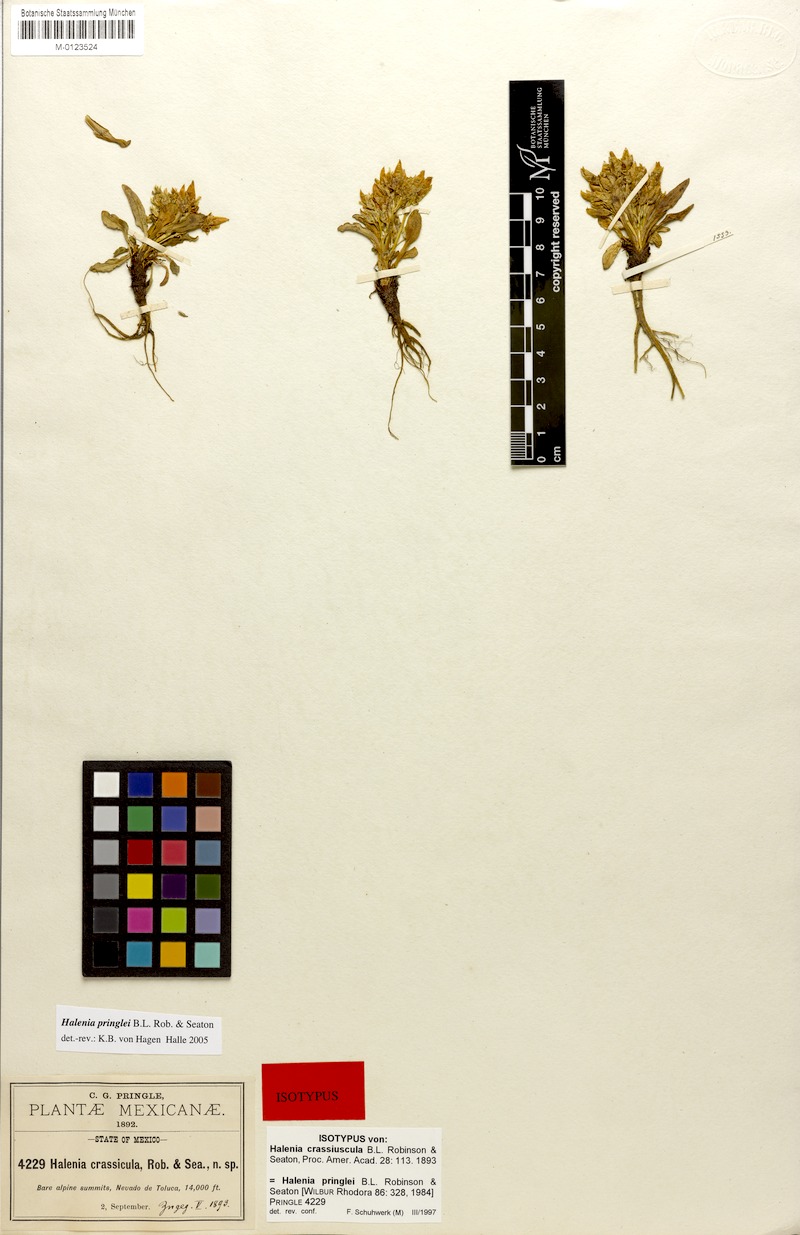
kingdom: Plantae
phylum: Tracheophyta
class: Magnoliopsida
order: Gentianales
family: Gentianaceae
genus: Halenia
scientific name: Halenia pringlei
